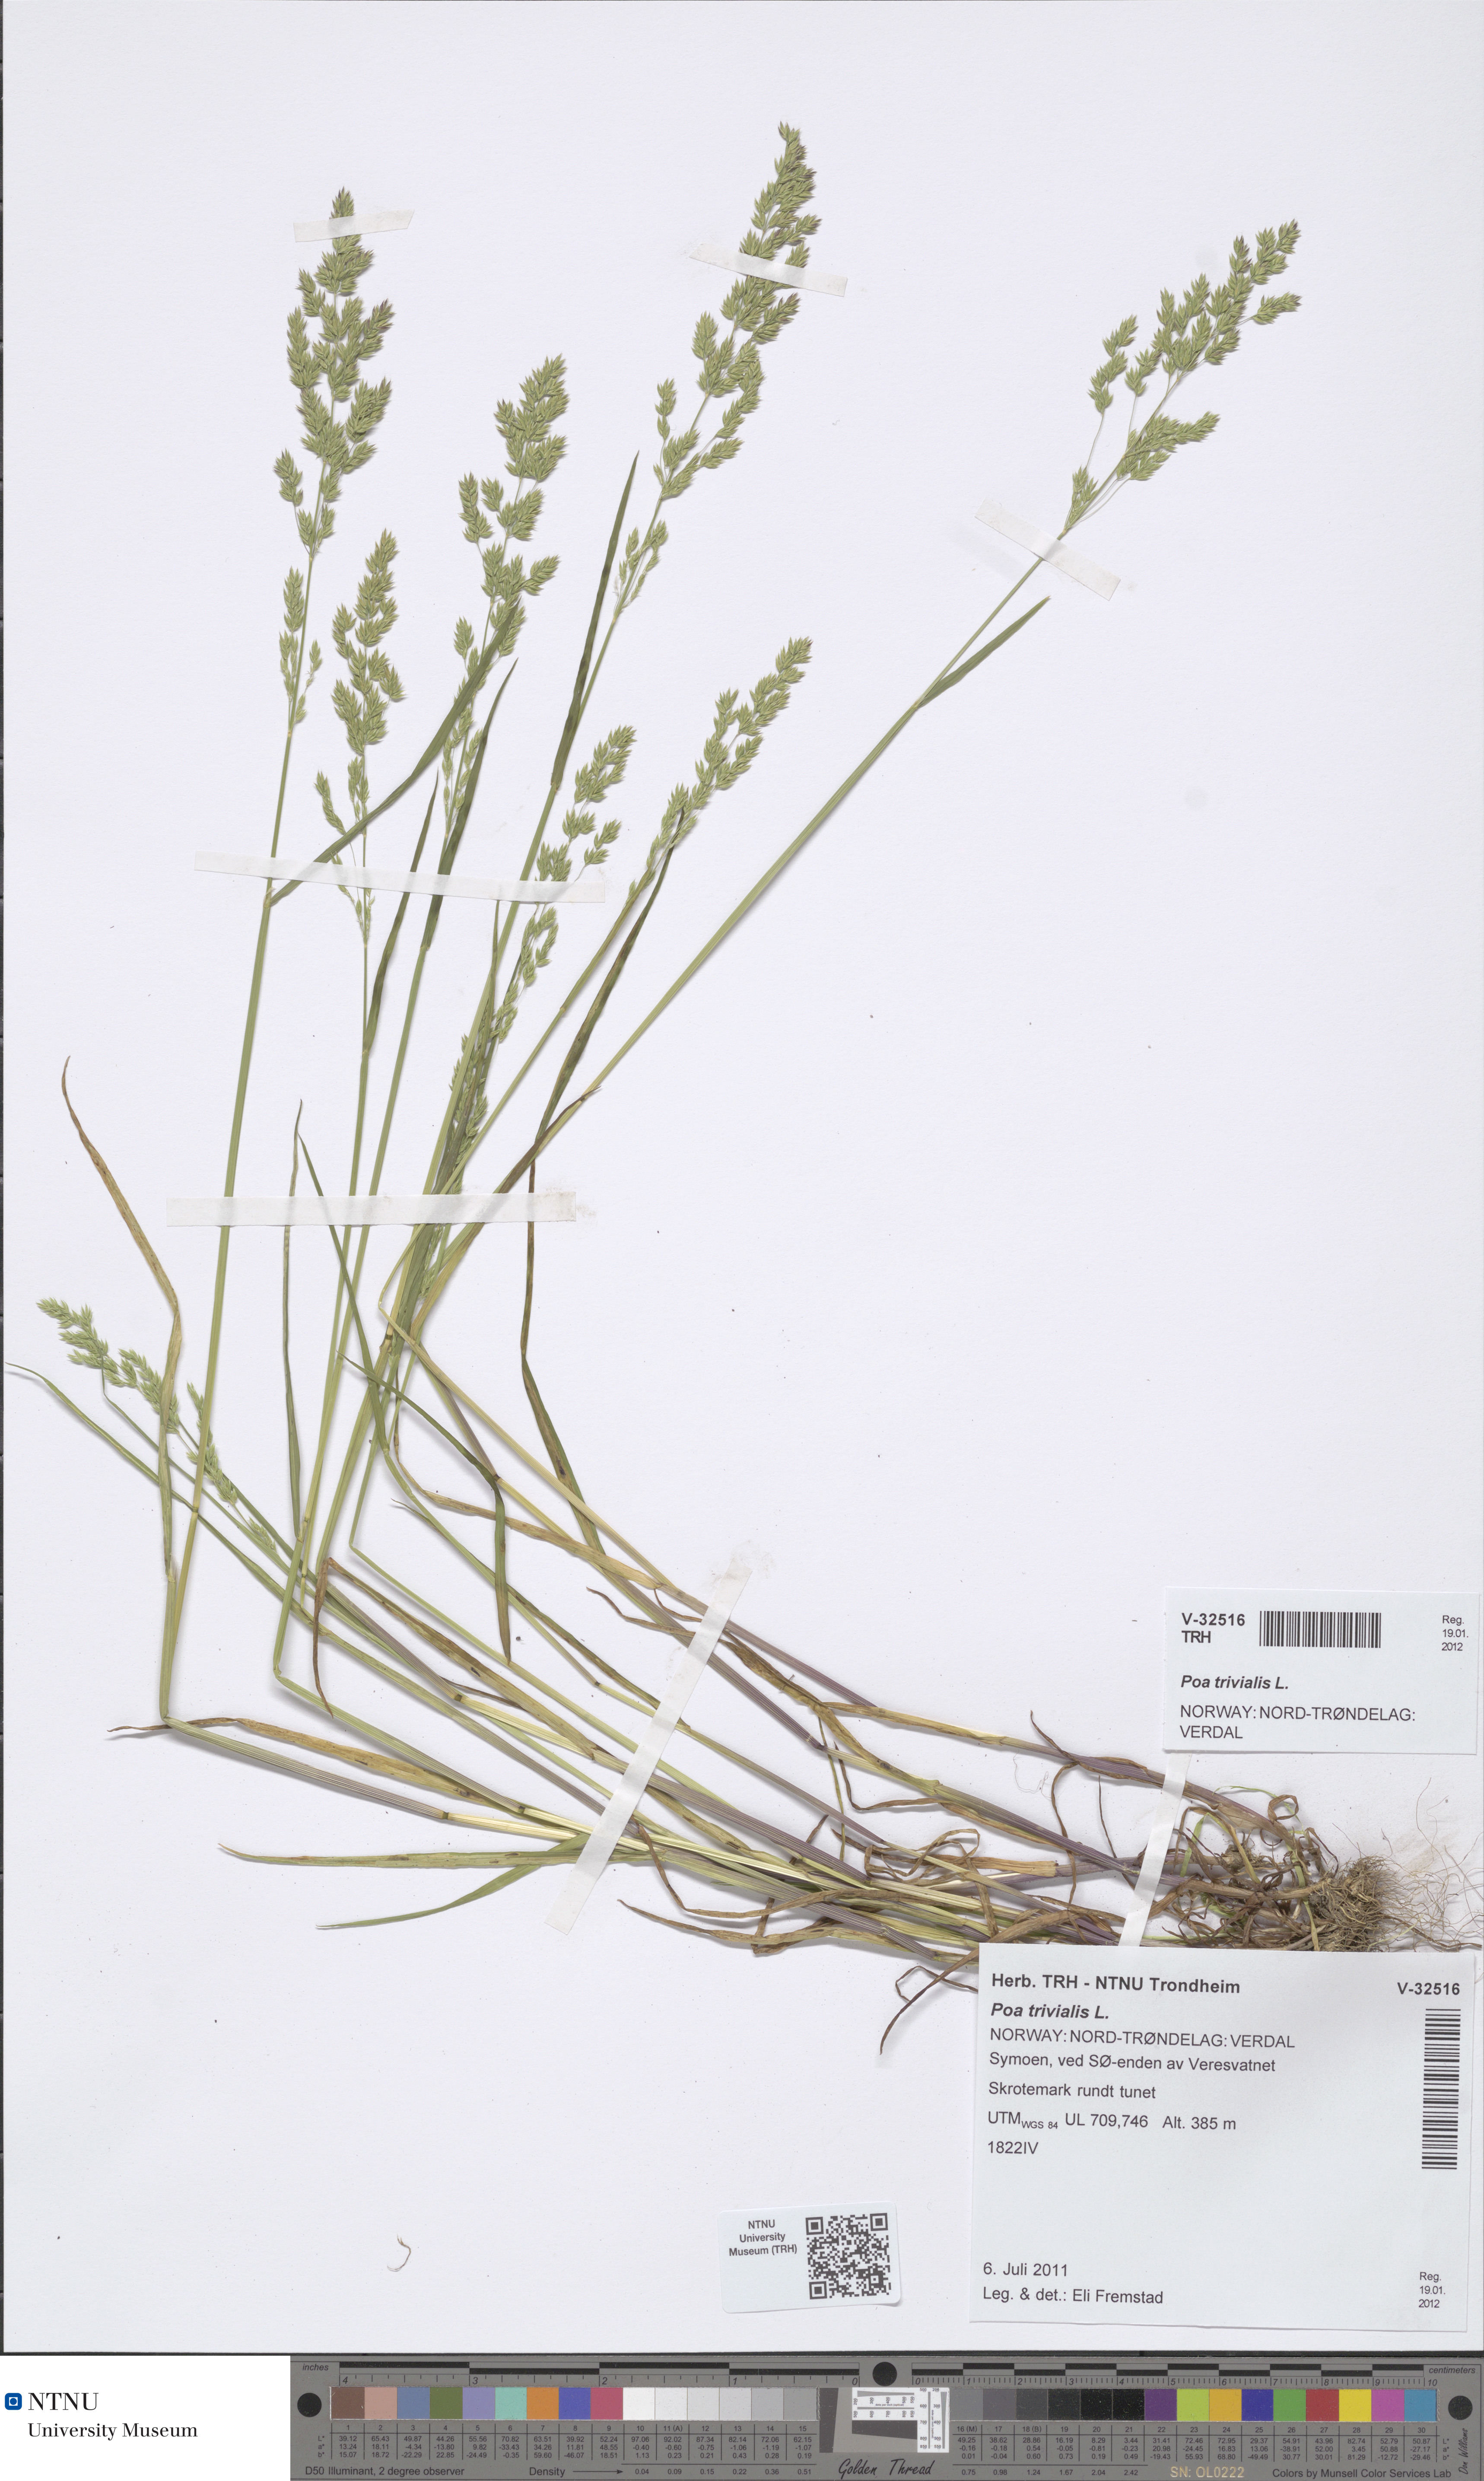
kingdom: Plantae
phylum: Tracheophyta
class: Liliopsida
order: Poales
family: Poaceae
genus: Poa
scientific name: Poa trivialis
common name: Rough bluegrass
